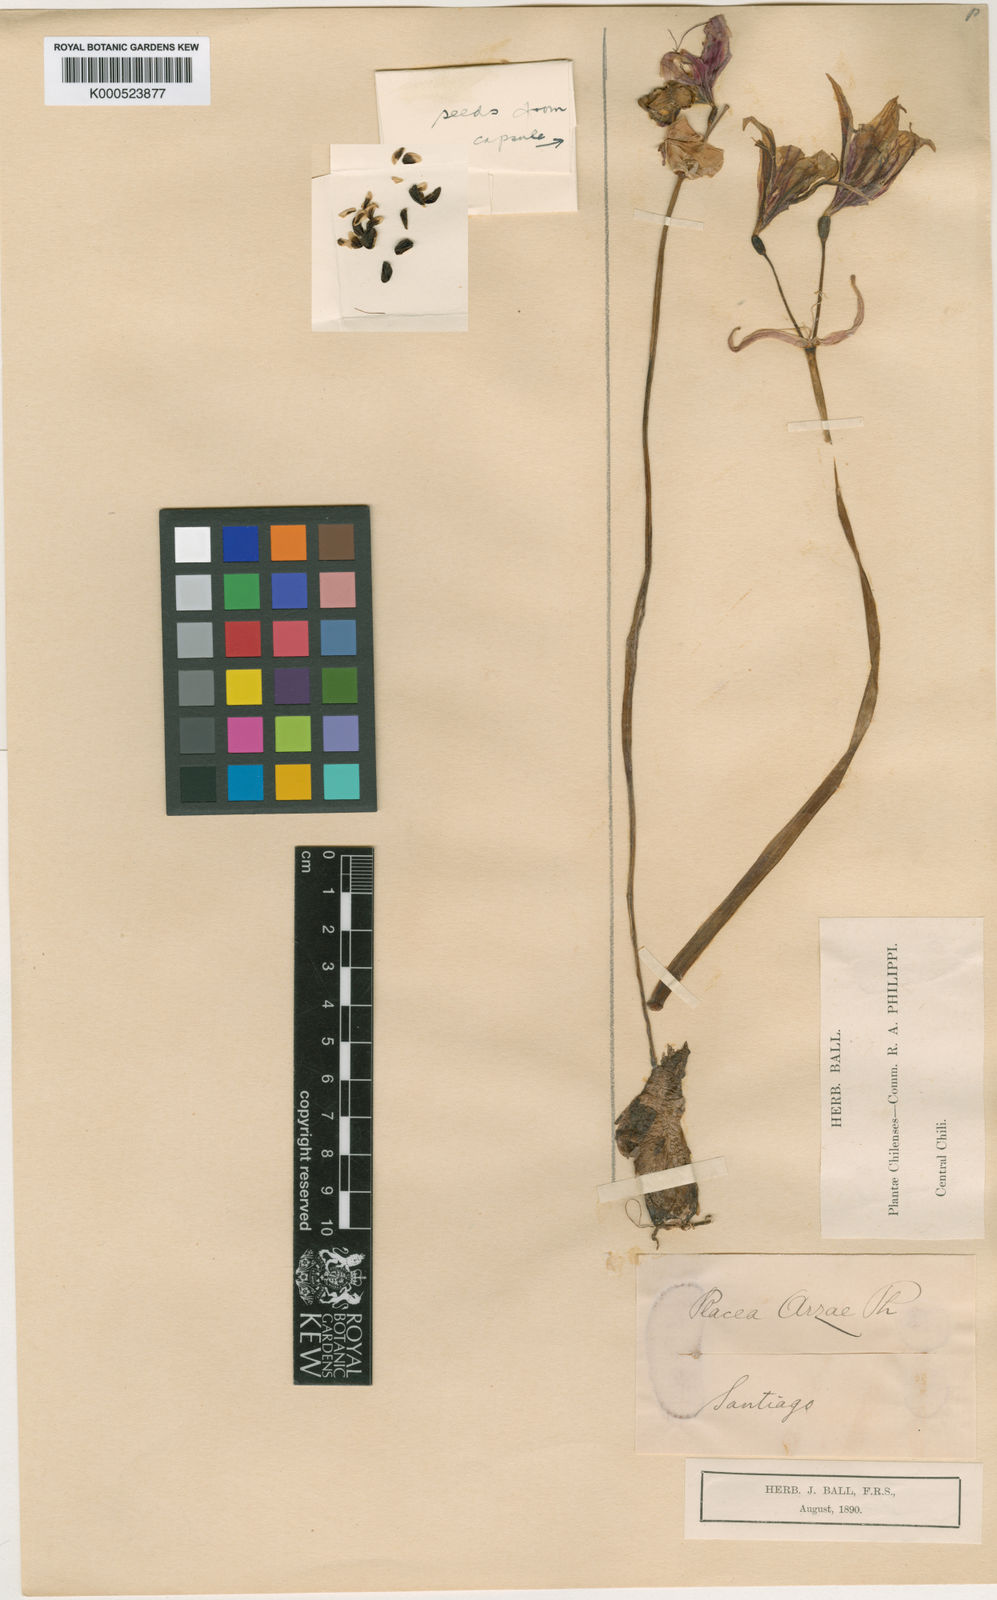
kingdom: Plantae
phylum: Tracheophyta
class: Liliopsida
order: Asparagales
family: Amaryllidaceae
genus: Phycella
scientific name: Phycella arzae
